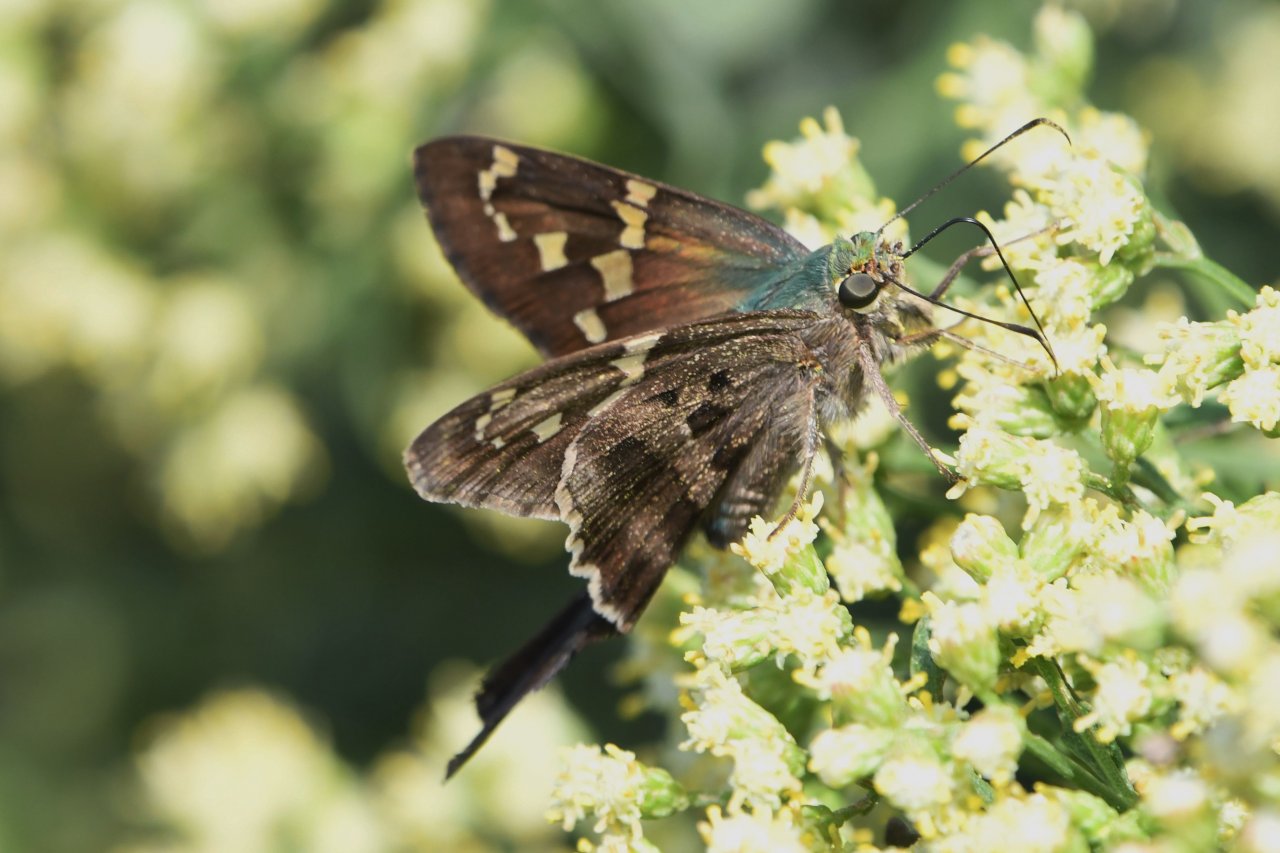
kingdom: Animalia
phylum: Arthropoda
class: Insecta
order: Lepidoptera
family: Hesperiidae
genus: Urbanus
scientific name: Urbanus proteus
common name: Long-tailed Skipper
